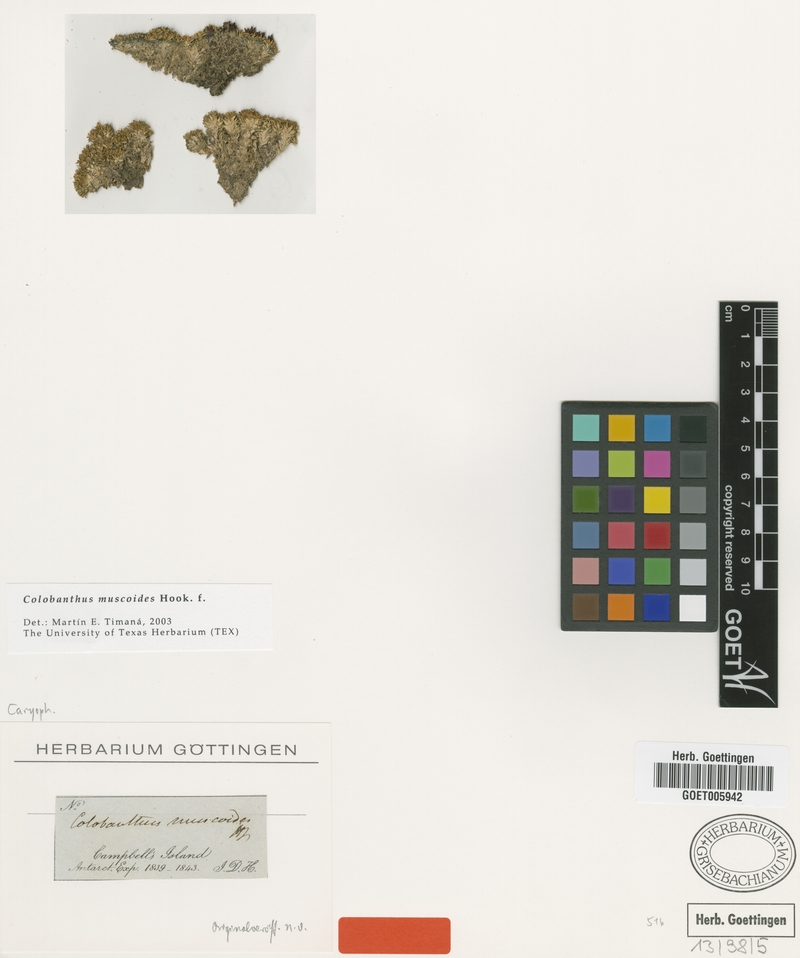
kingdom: Plantae
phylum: Tracheophyta
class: Magnoliopsida
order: Caryophyllales
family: Caryophyllaceae
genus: Colobanthus
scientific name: Colobanthus muscoides
